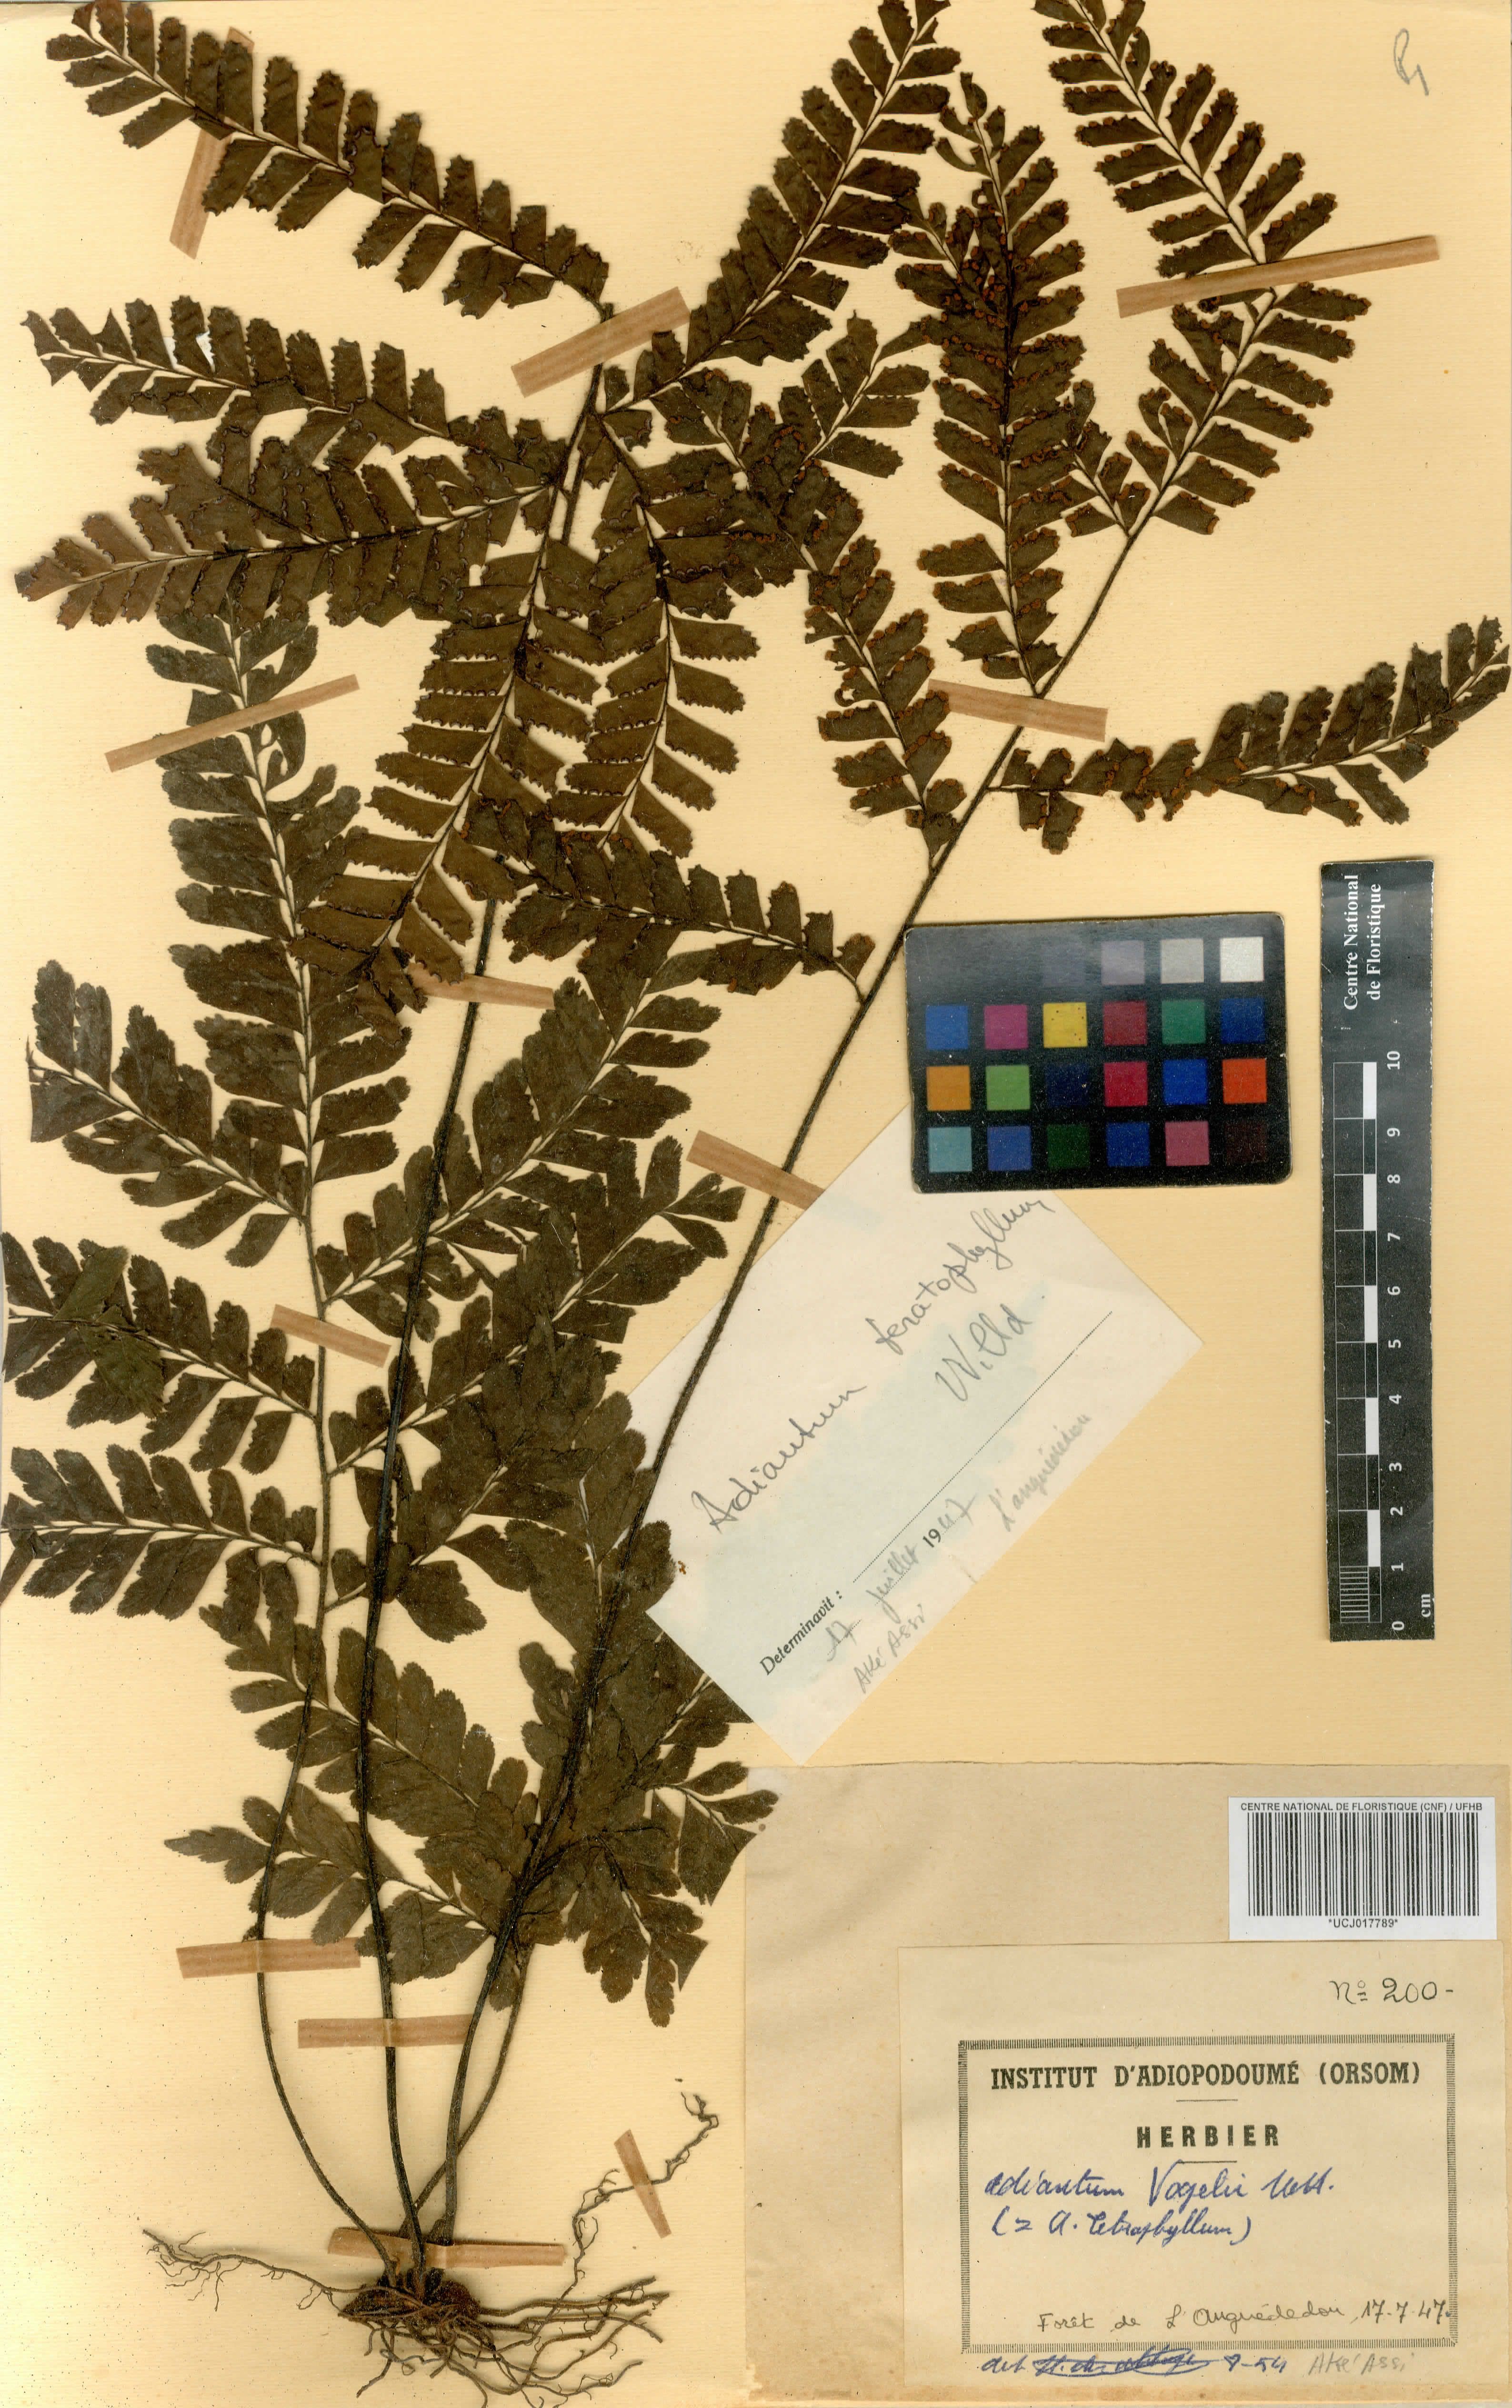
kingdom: Plantae
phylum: Tracheophyta
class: Polypodiopsida
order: Polypodiales
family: Pteridaceae
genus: Adiantum
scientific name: Adiantum vogelii
